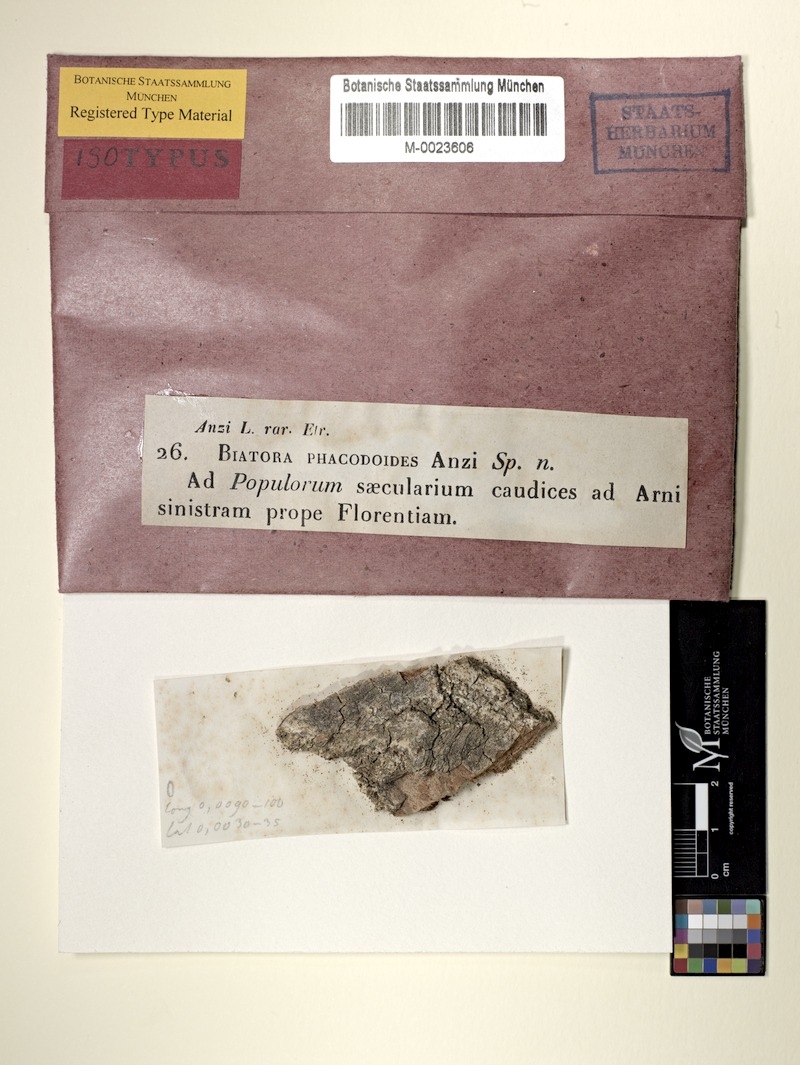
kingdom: Fungi
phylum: Ascomycota
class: Lecanoromycetes
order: Lecanorales
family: Ramalinaceae
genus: Lecania
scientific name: Lecania cyrtella
